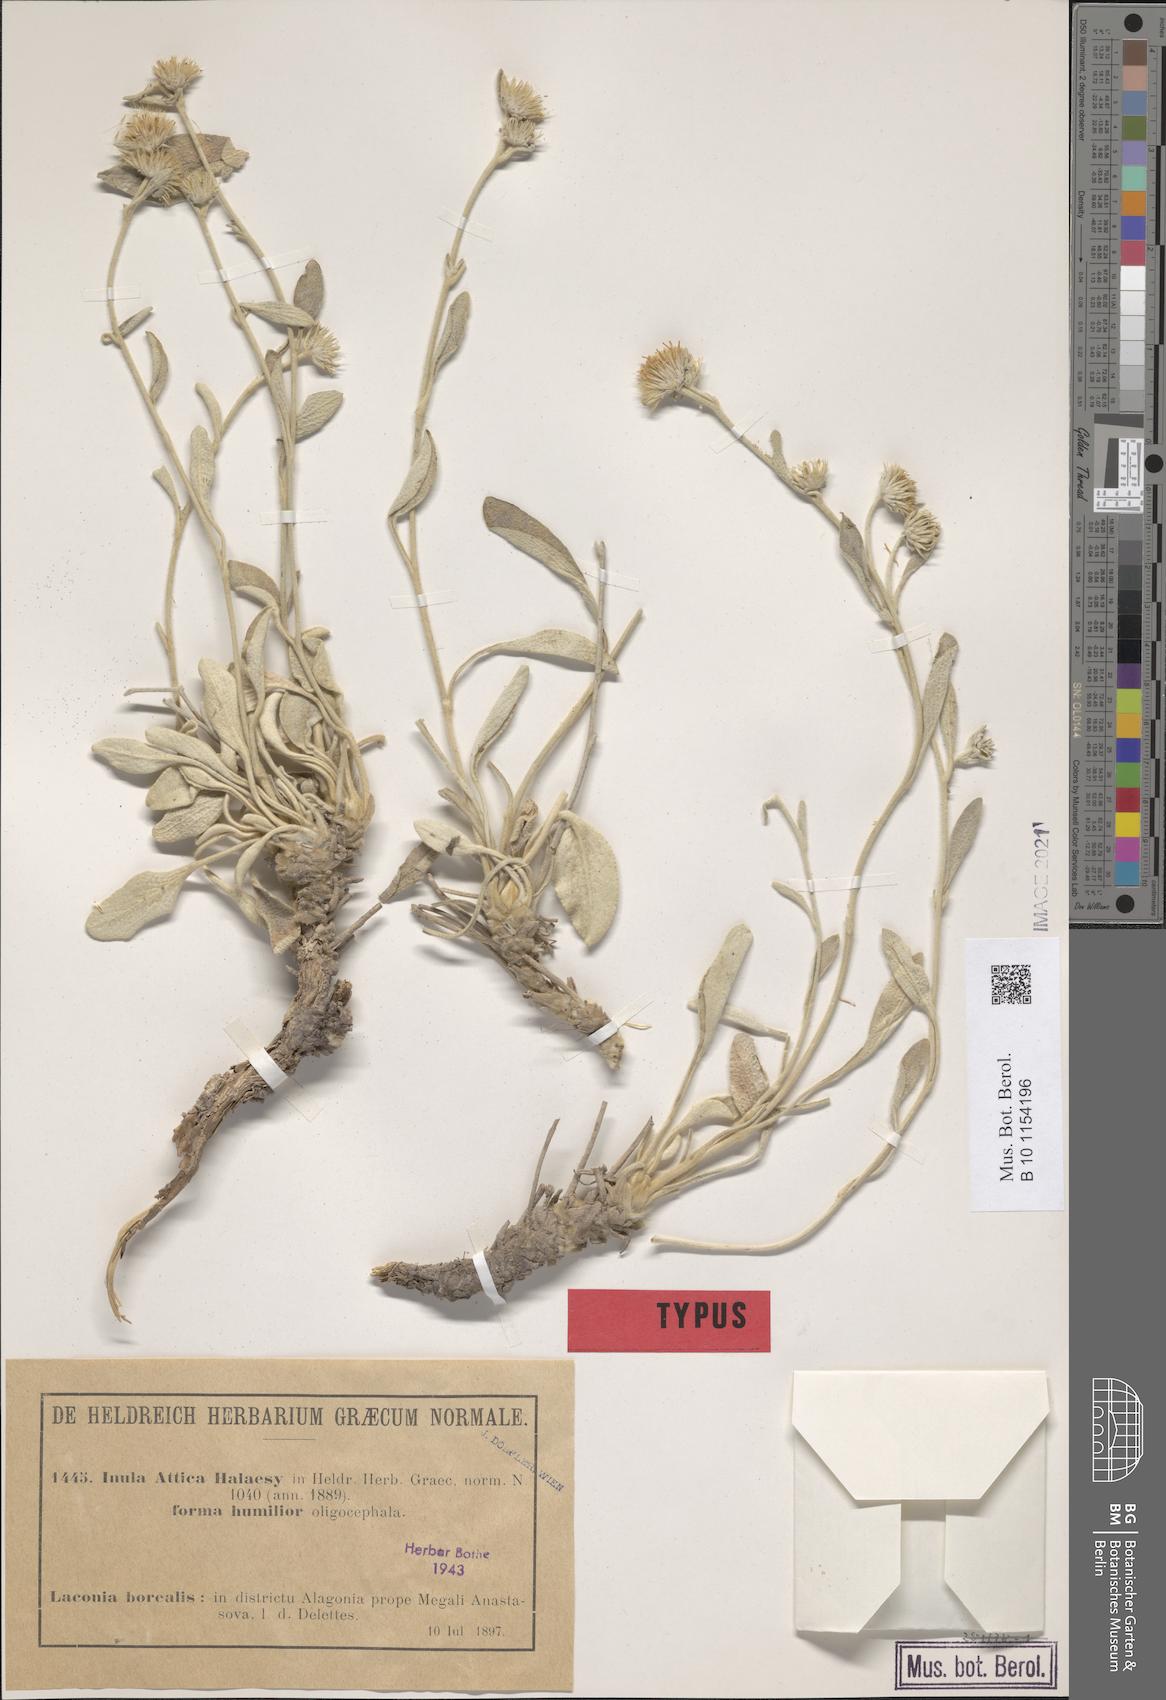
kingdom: Plantae
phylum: Tracheophyta
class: Magnoliopsida
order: Asterales
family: Asteraceae
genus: Pentanema
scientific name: Pentanema verbascifolium
